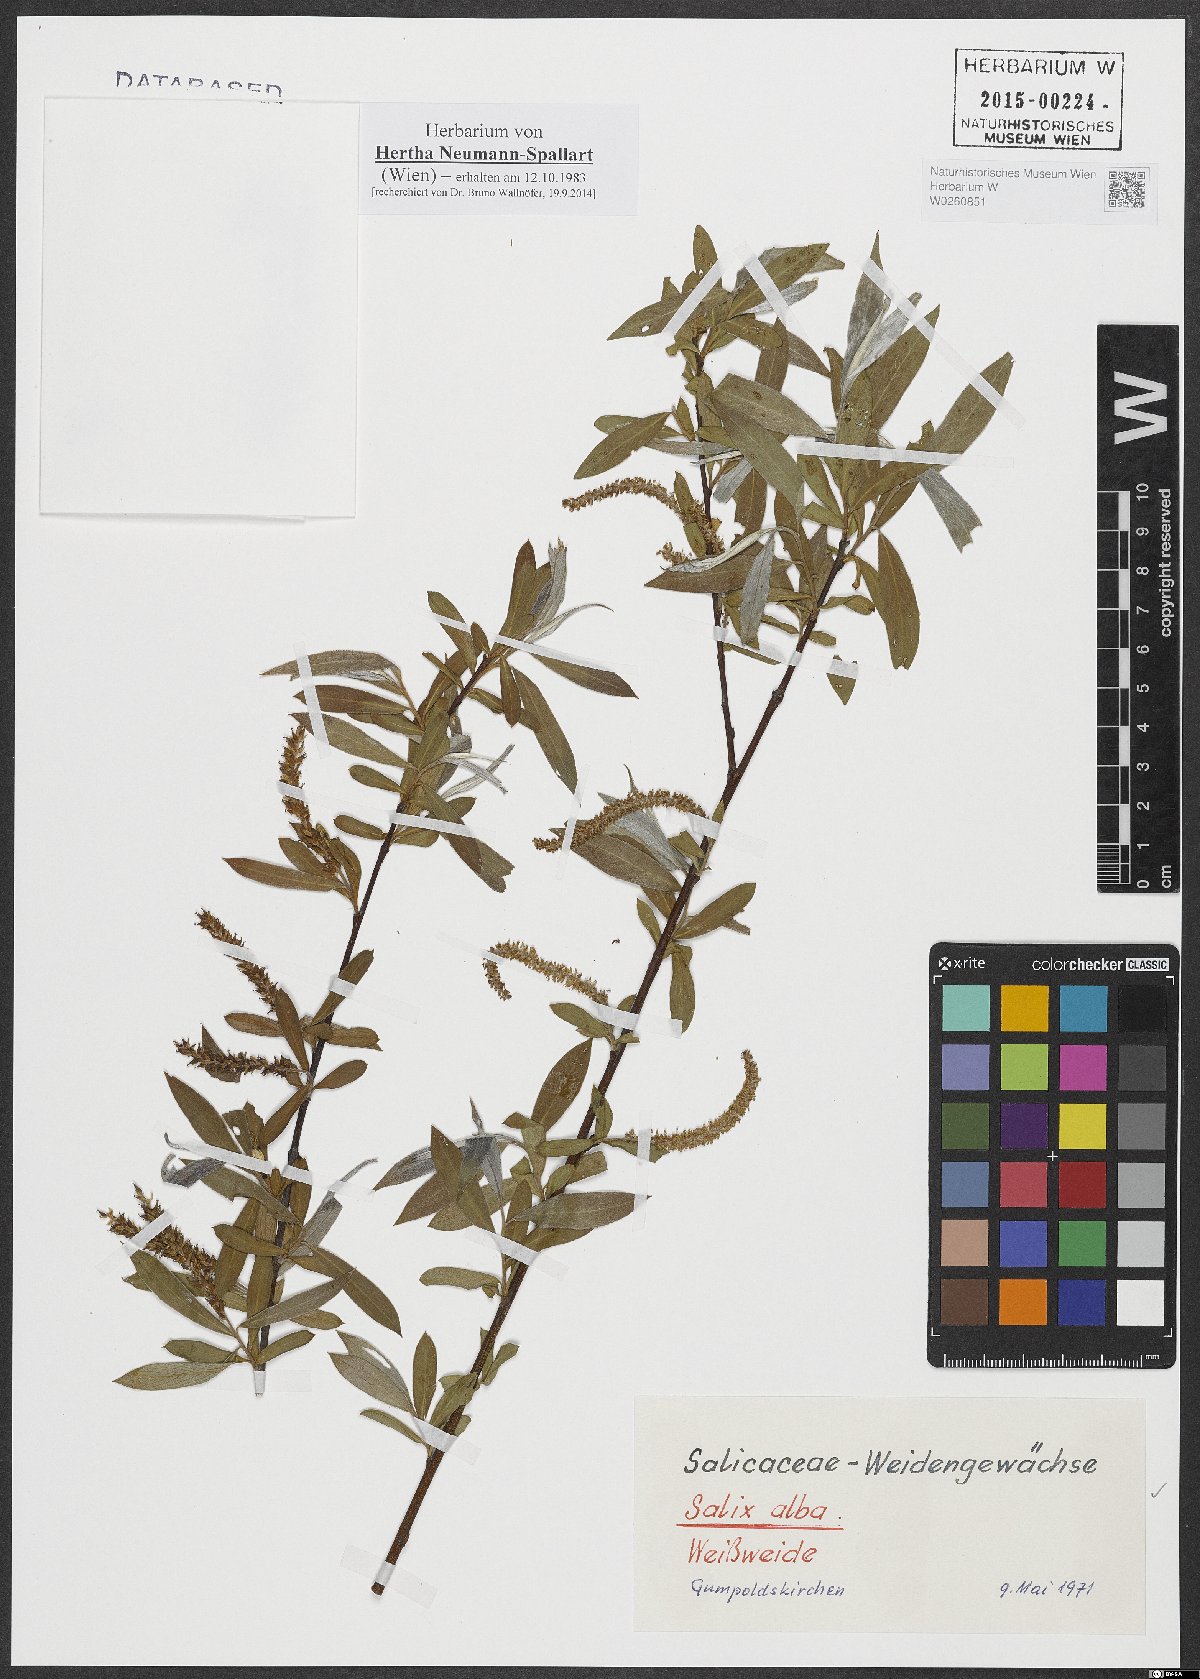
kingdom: Plantae
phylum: Tracheophyta
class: Magnoliopsida
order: Malpighiales
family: Salicaceae
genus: Salix
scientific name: Salix alba
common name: White willow
